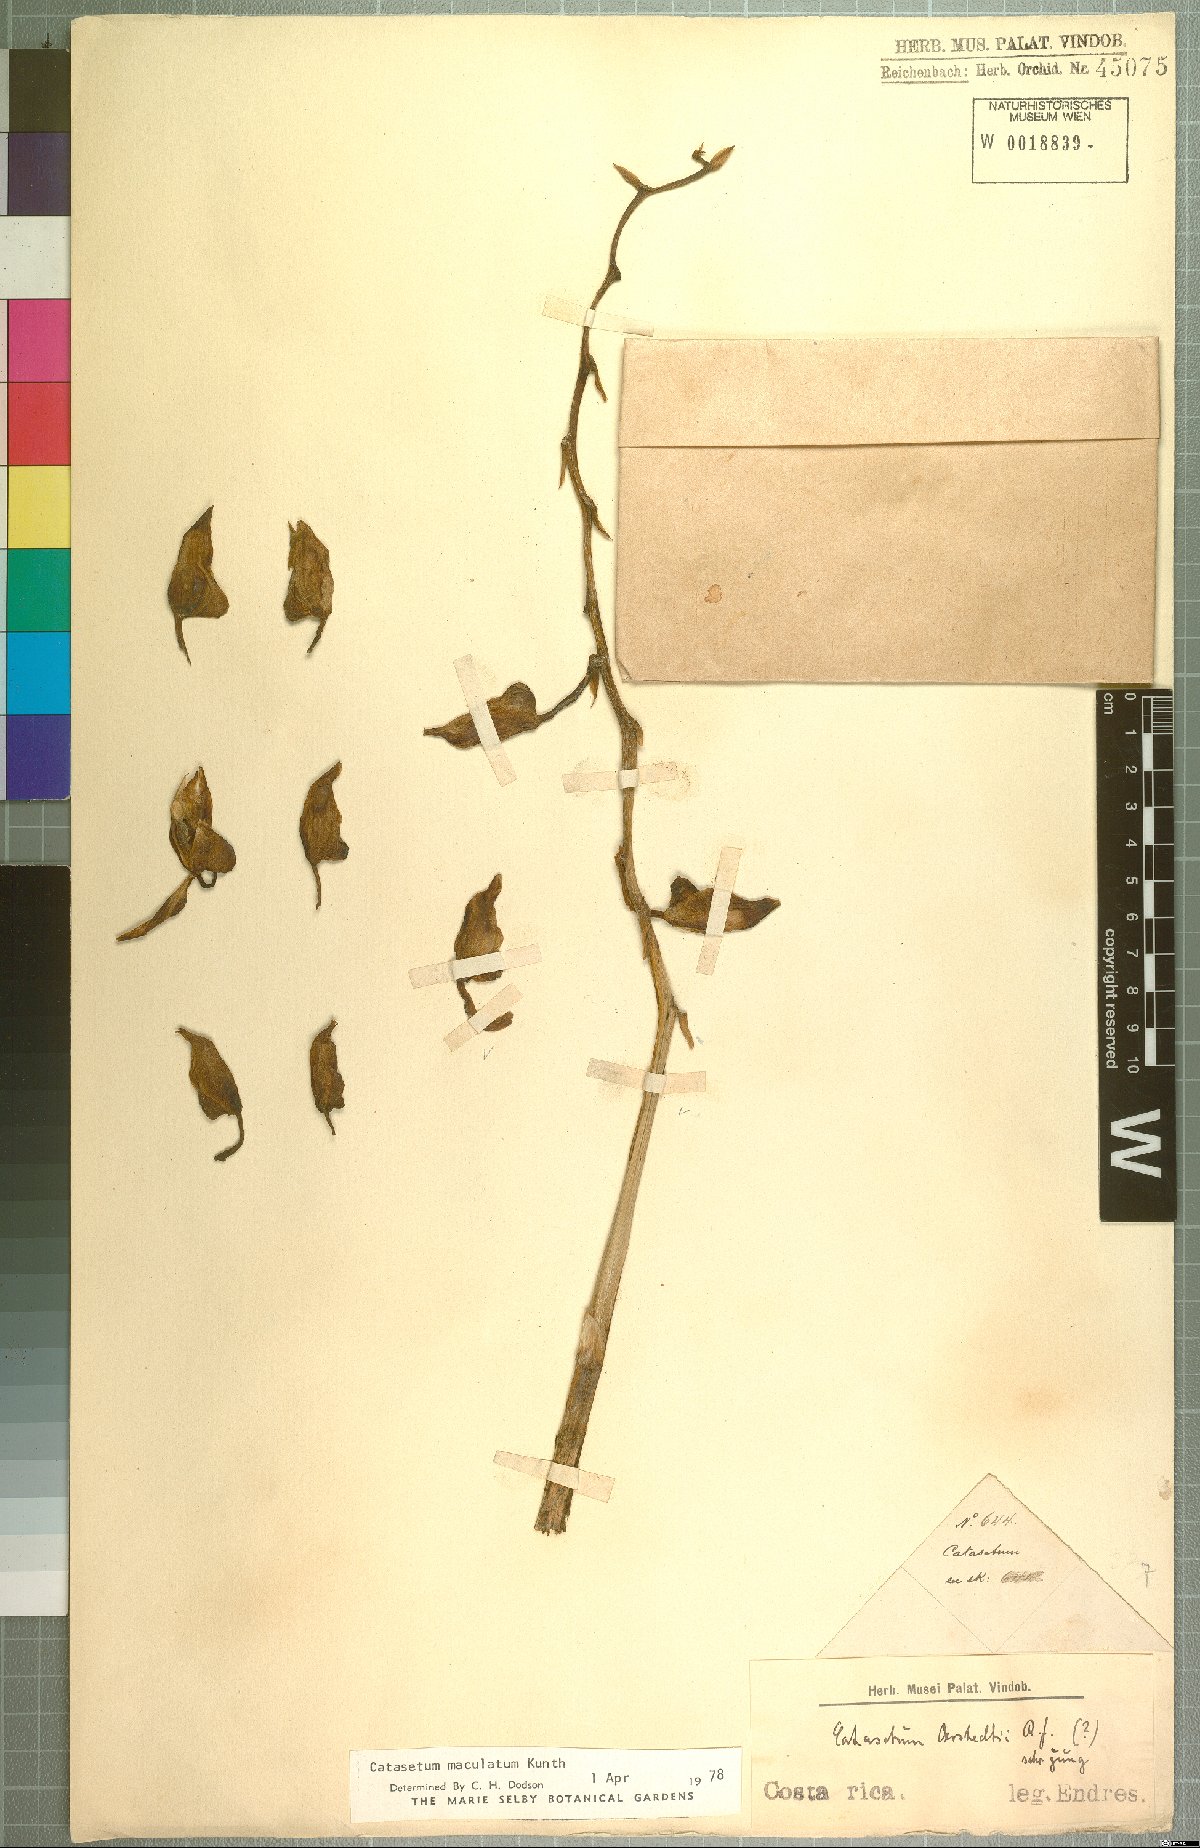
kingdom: Plantae
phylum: Tracheophyta
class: Liliopsida
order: Asparagales
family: Orchidaceae
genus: Catasetum
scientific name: Catasetum maculatum
